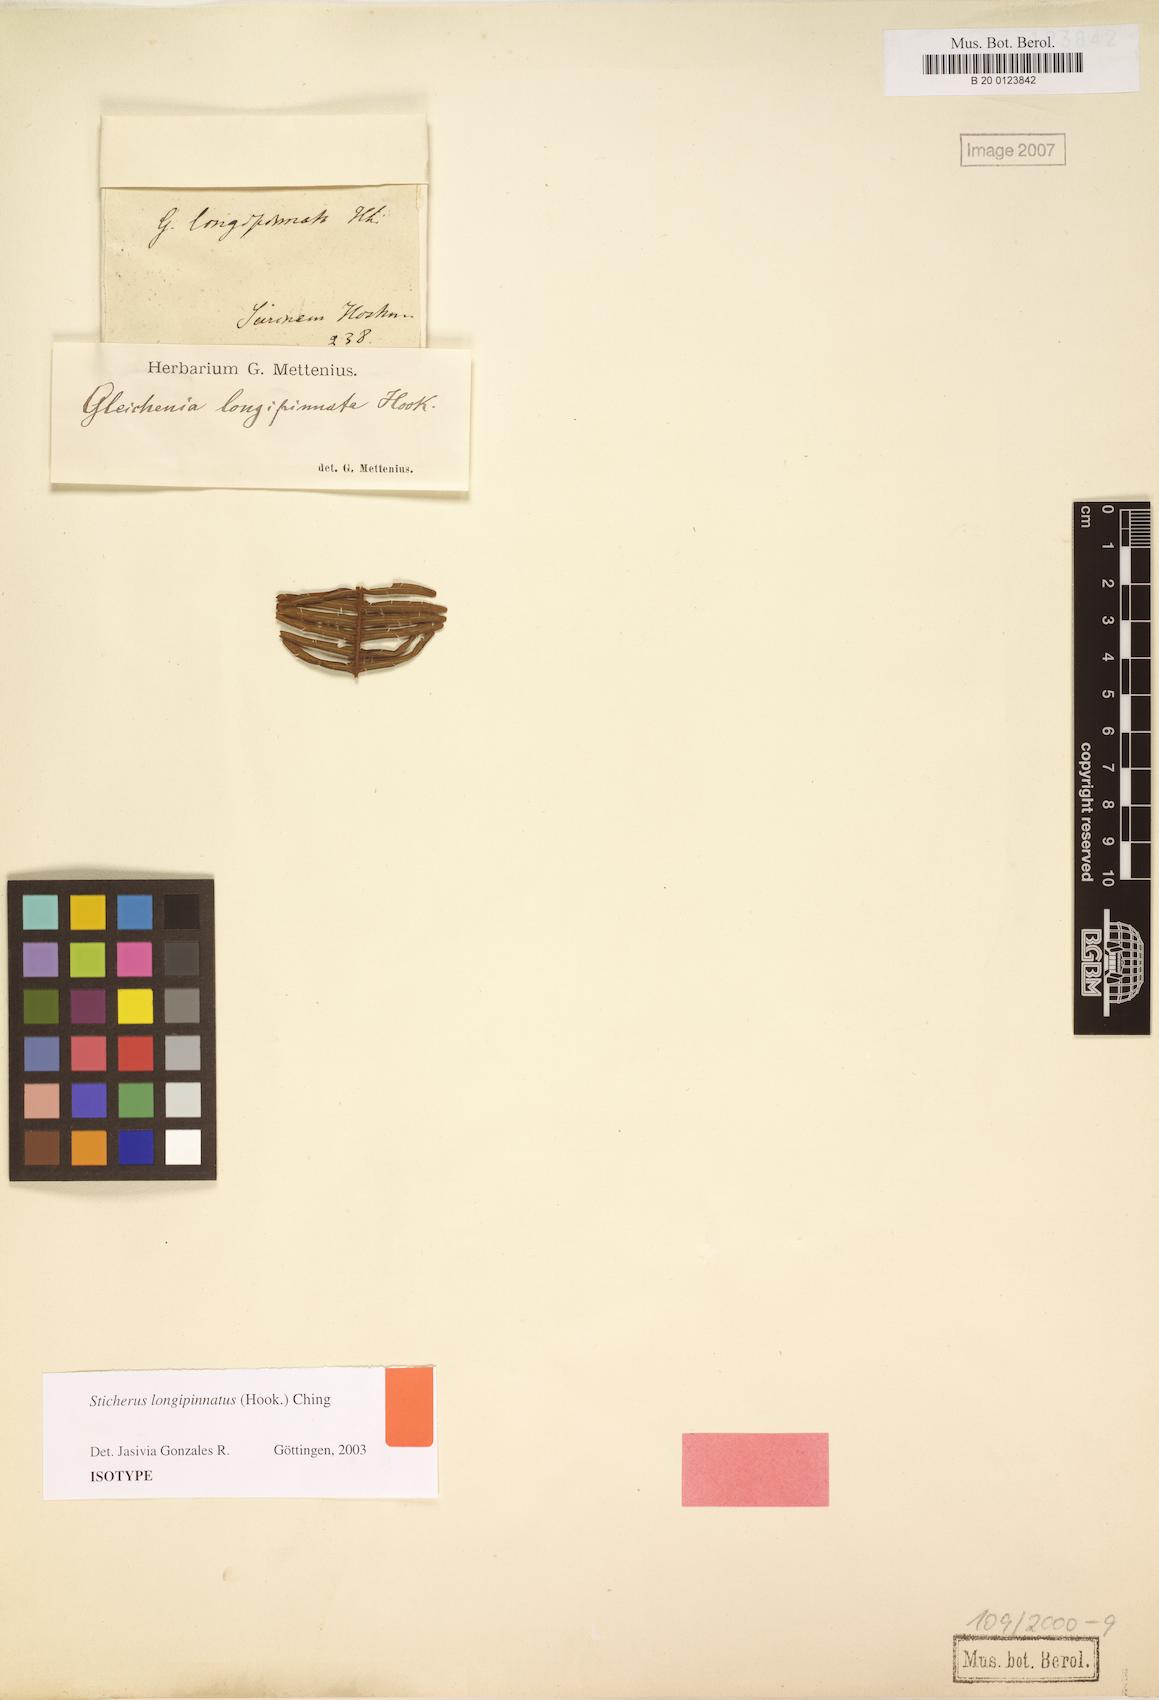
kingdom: Plantae
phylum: Tracheophyta
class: Polypodiopsida
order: Gleicheniales
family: Gleicheniaceae
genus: Sticherus
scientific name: Sticherus longipinnatus
